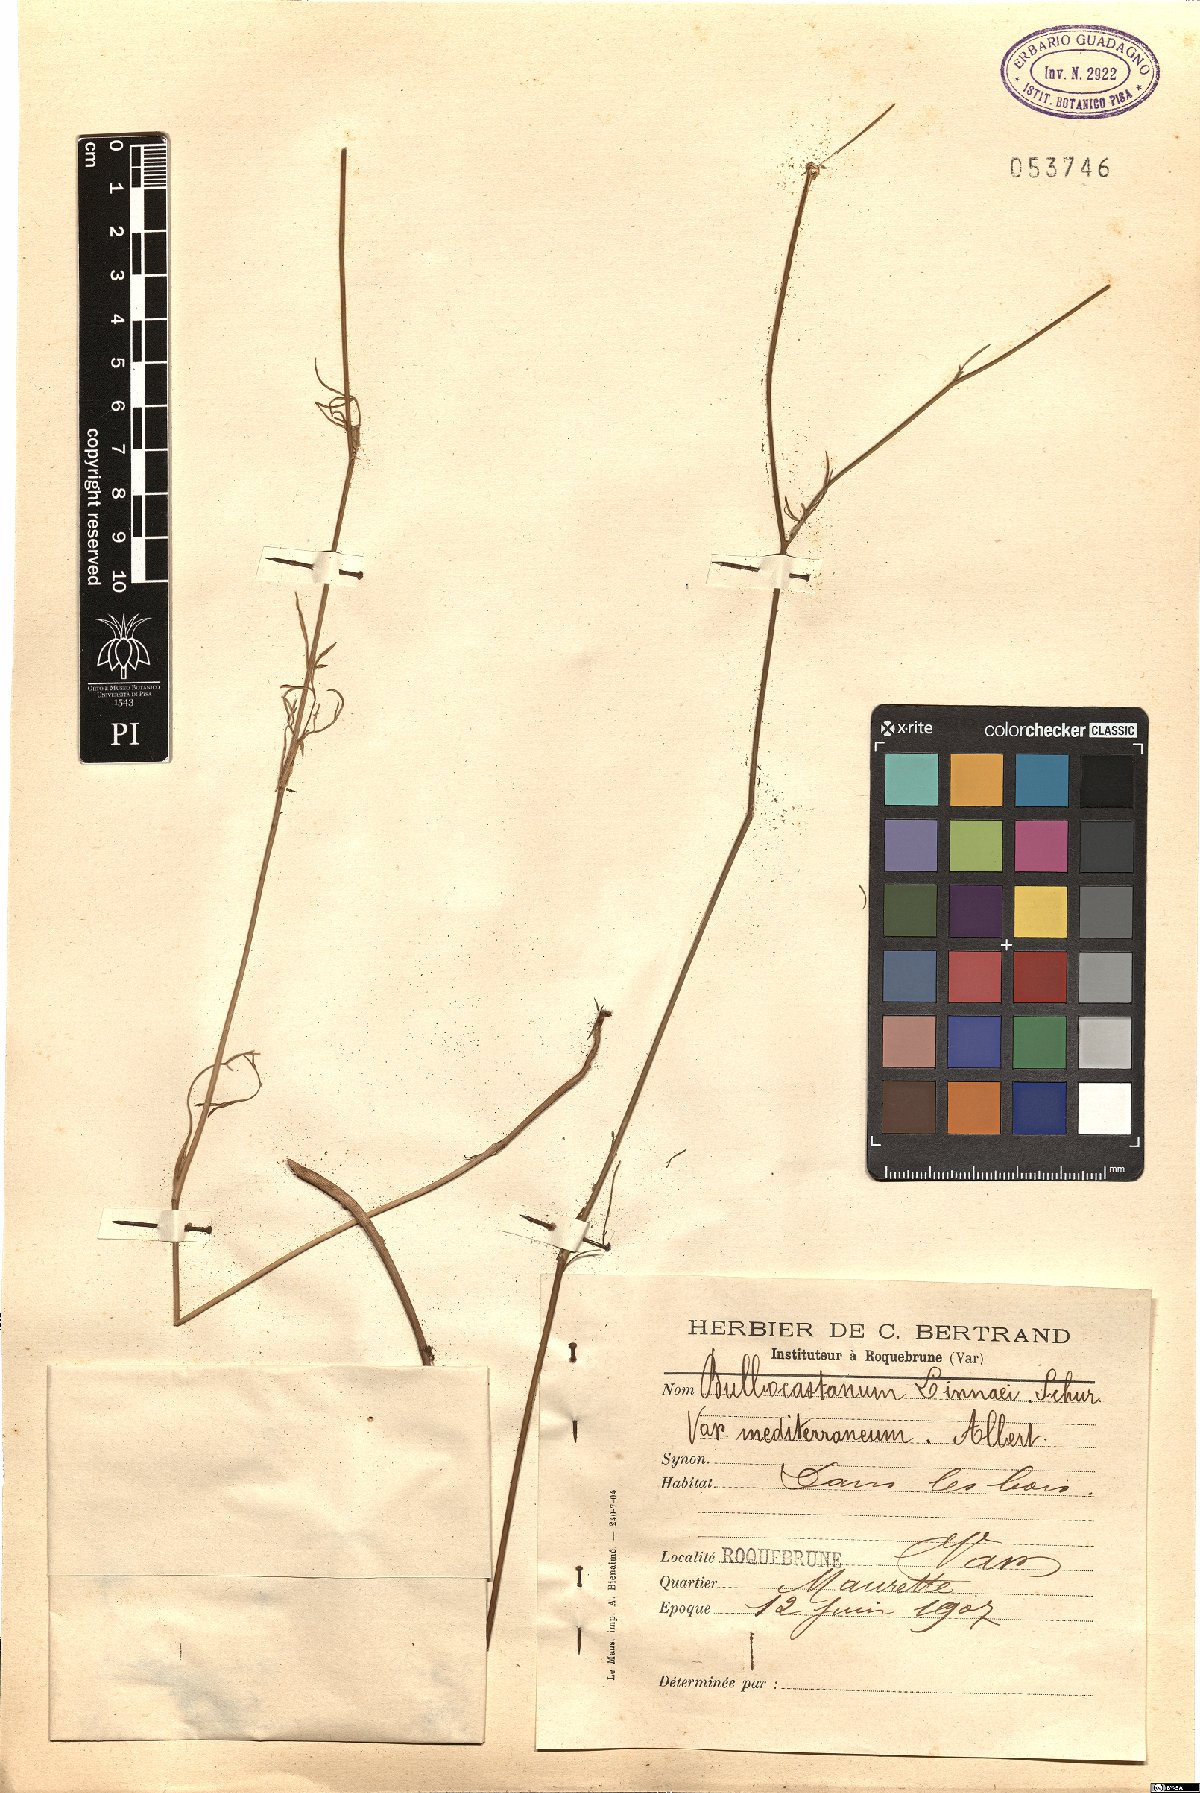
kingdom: Plantae
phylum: Tracheophyta
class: Magnoliopsida
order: Apiales
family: Apiaceae
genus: Bunium
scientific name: Bunium bulbocastanum
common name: Great pignut
